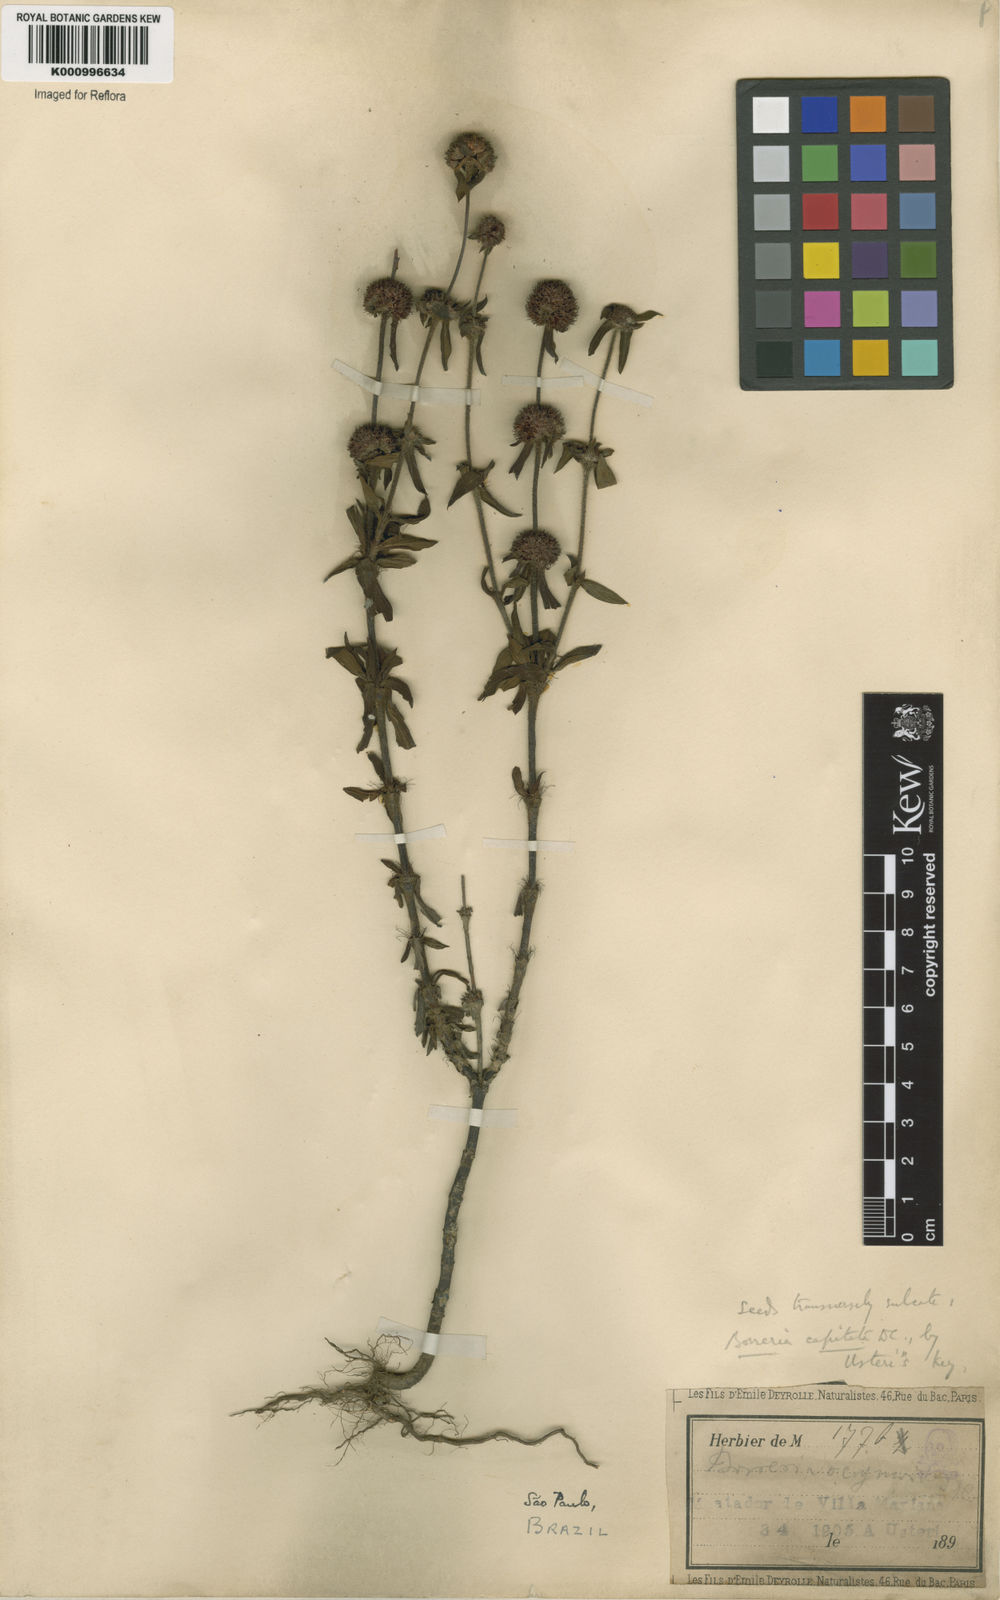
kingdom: Plantae
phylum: Tracheophyta
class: Magnoliopsida
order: Gentianales
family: Rubiaceae
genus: Spermacoce
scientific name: Spermacoce capitata
